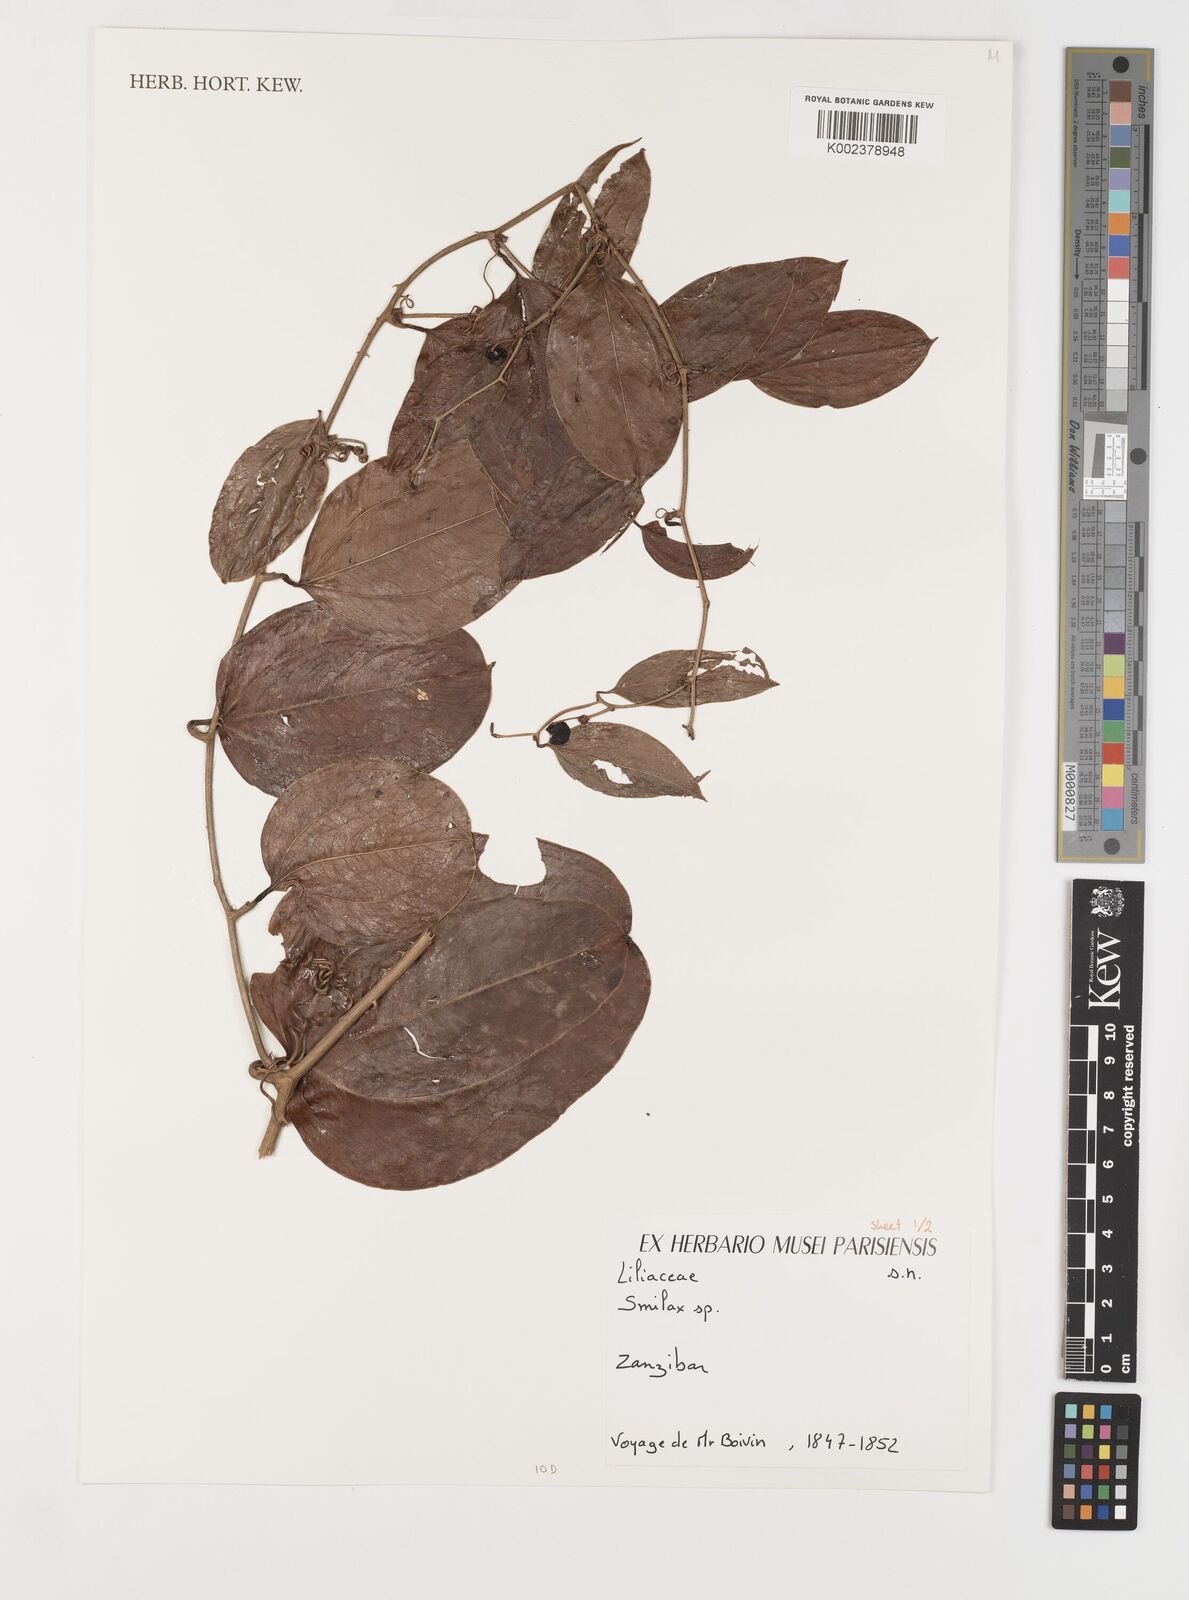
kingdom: Plantae
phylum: Tracheophyta
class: Liliopsida
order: Liliales
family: Smilacaceae
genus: Smilax
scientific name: Smilax
